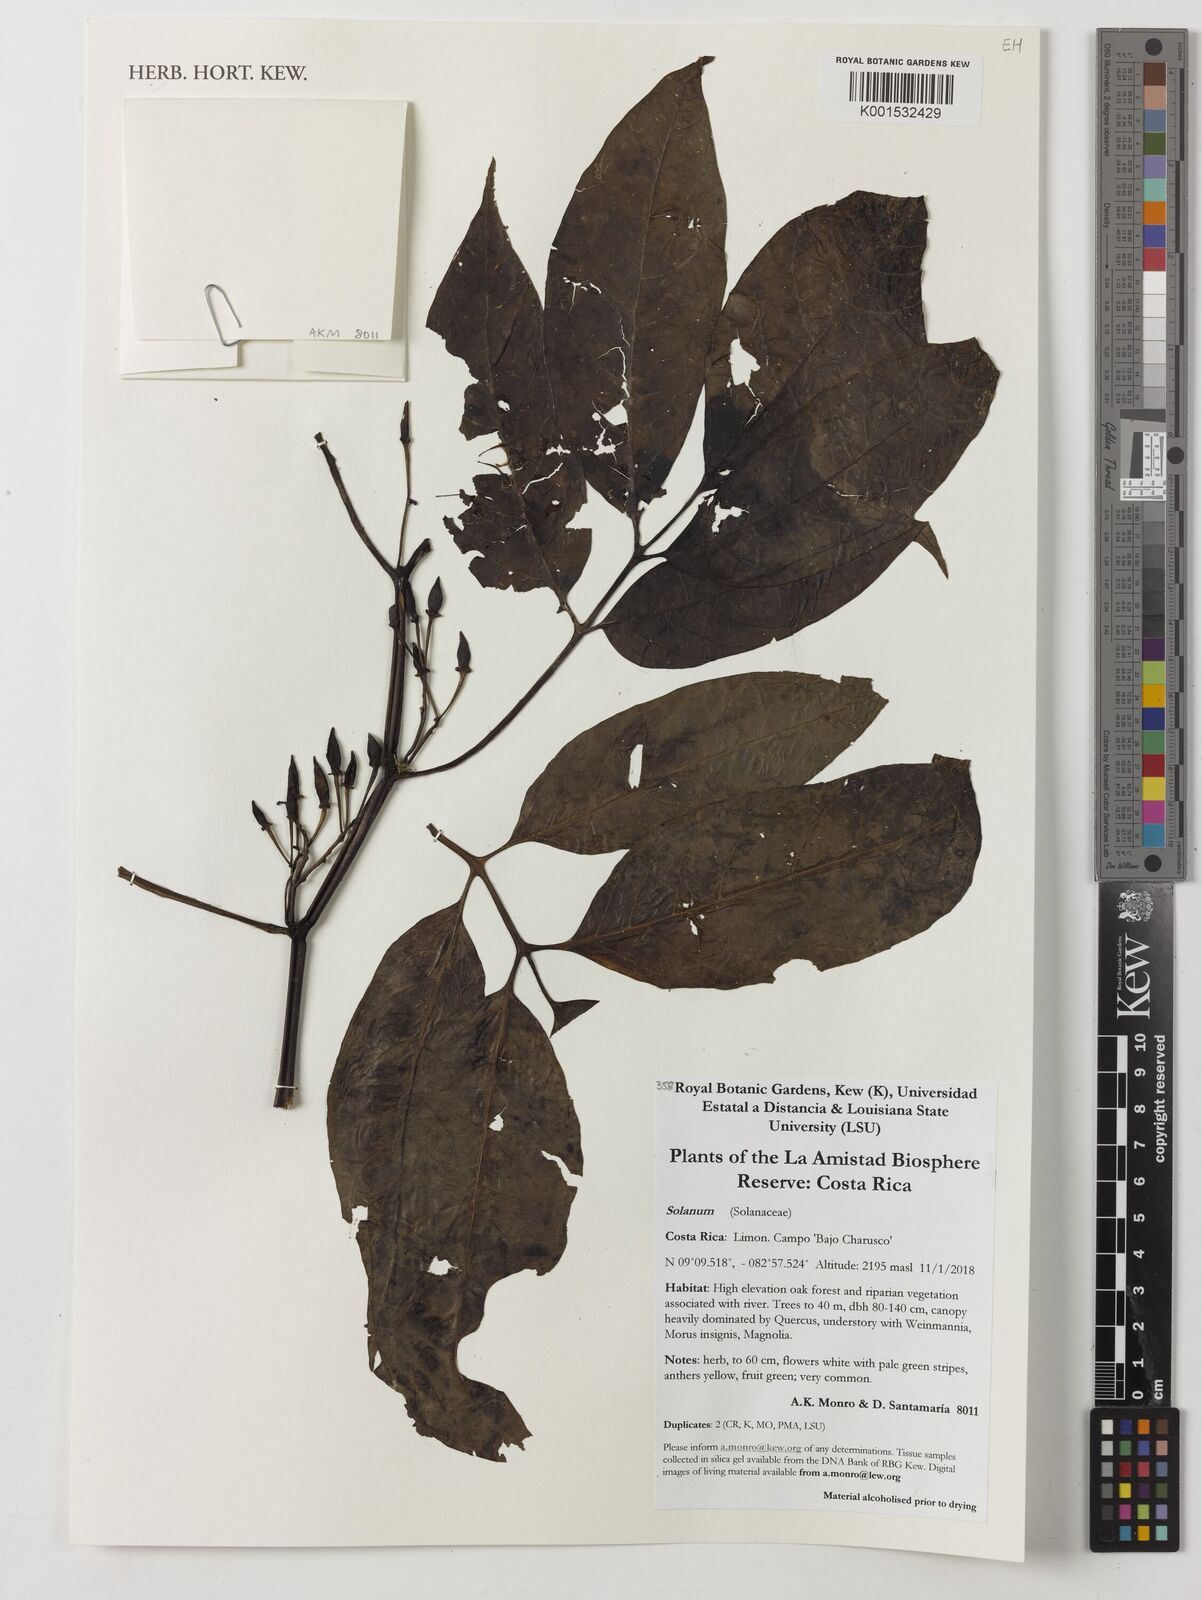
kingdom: Plantae
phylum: Tracheophyta
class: Magnoliopsida
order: Solanales
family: Solanaceae
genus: Solanum
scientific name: Solanum
